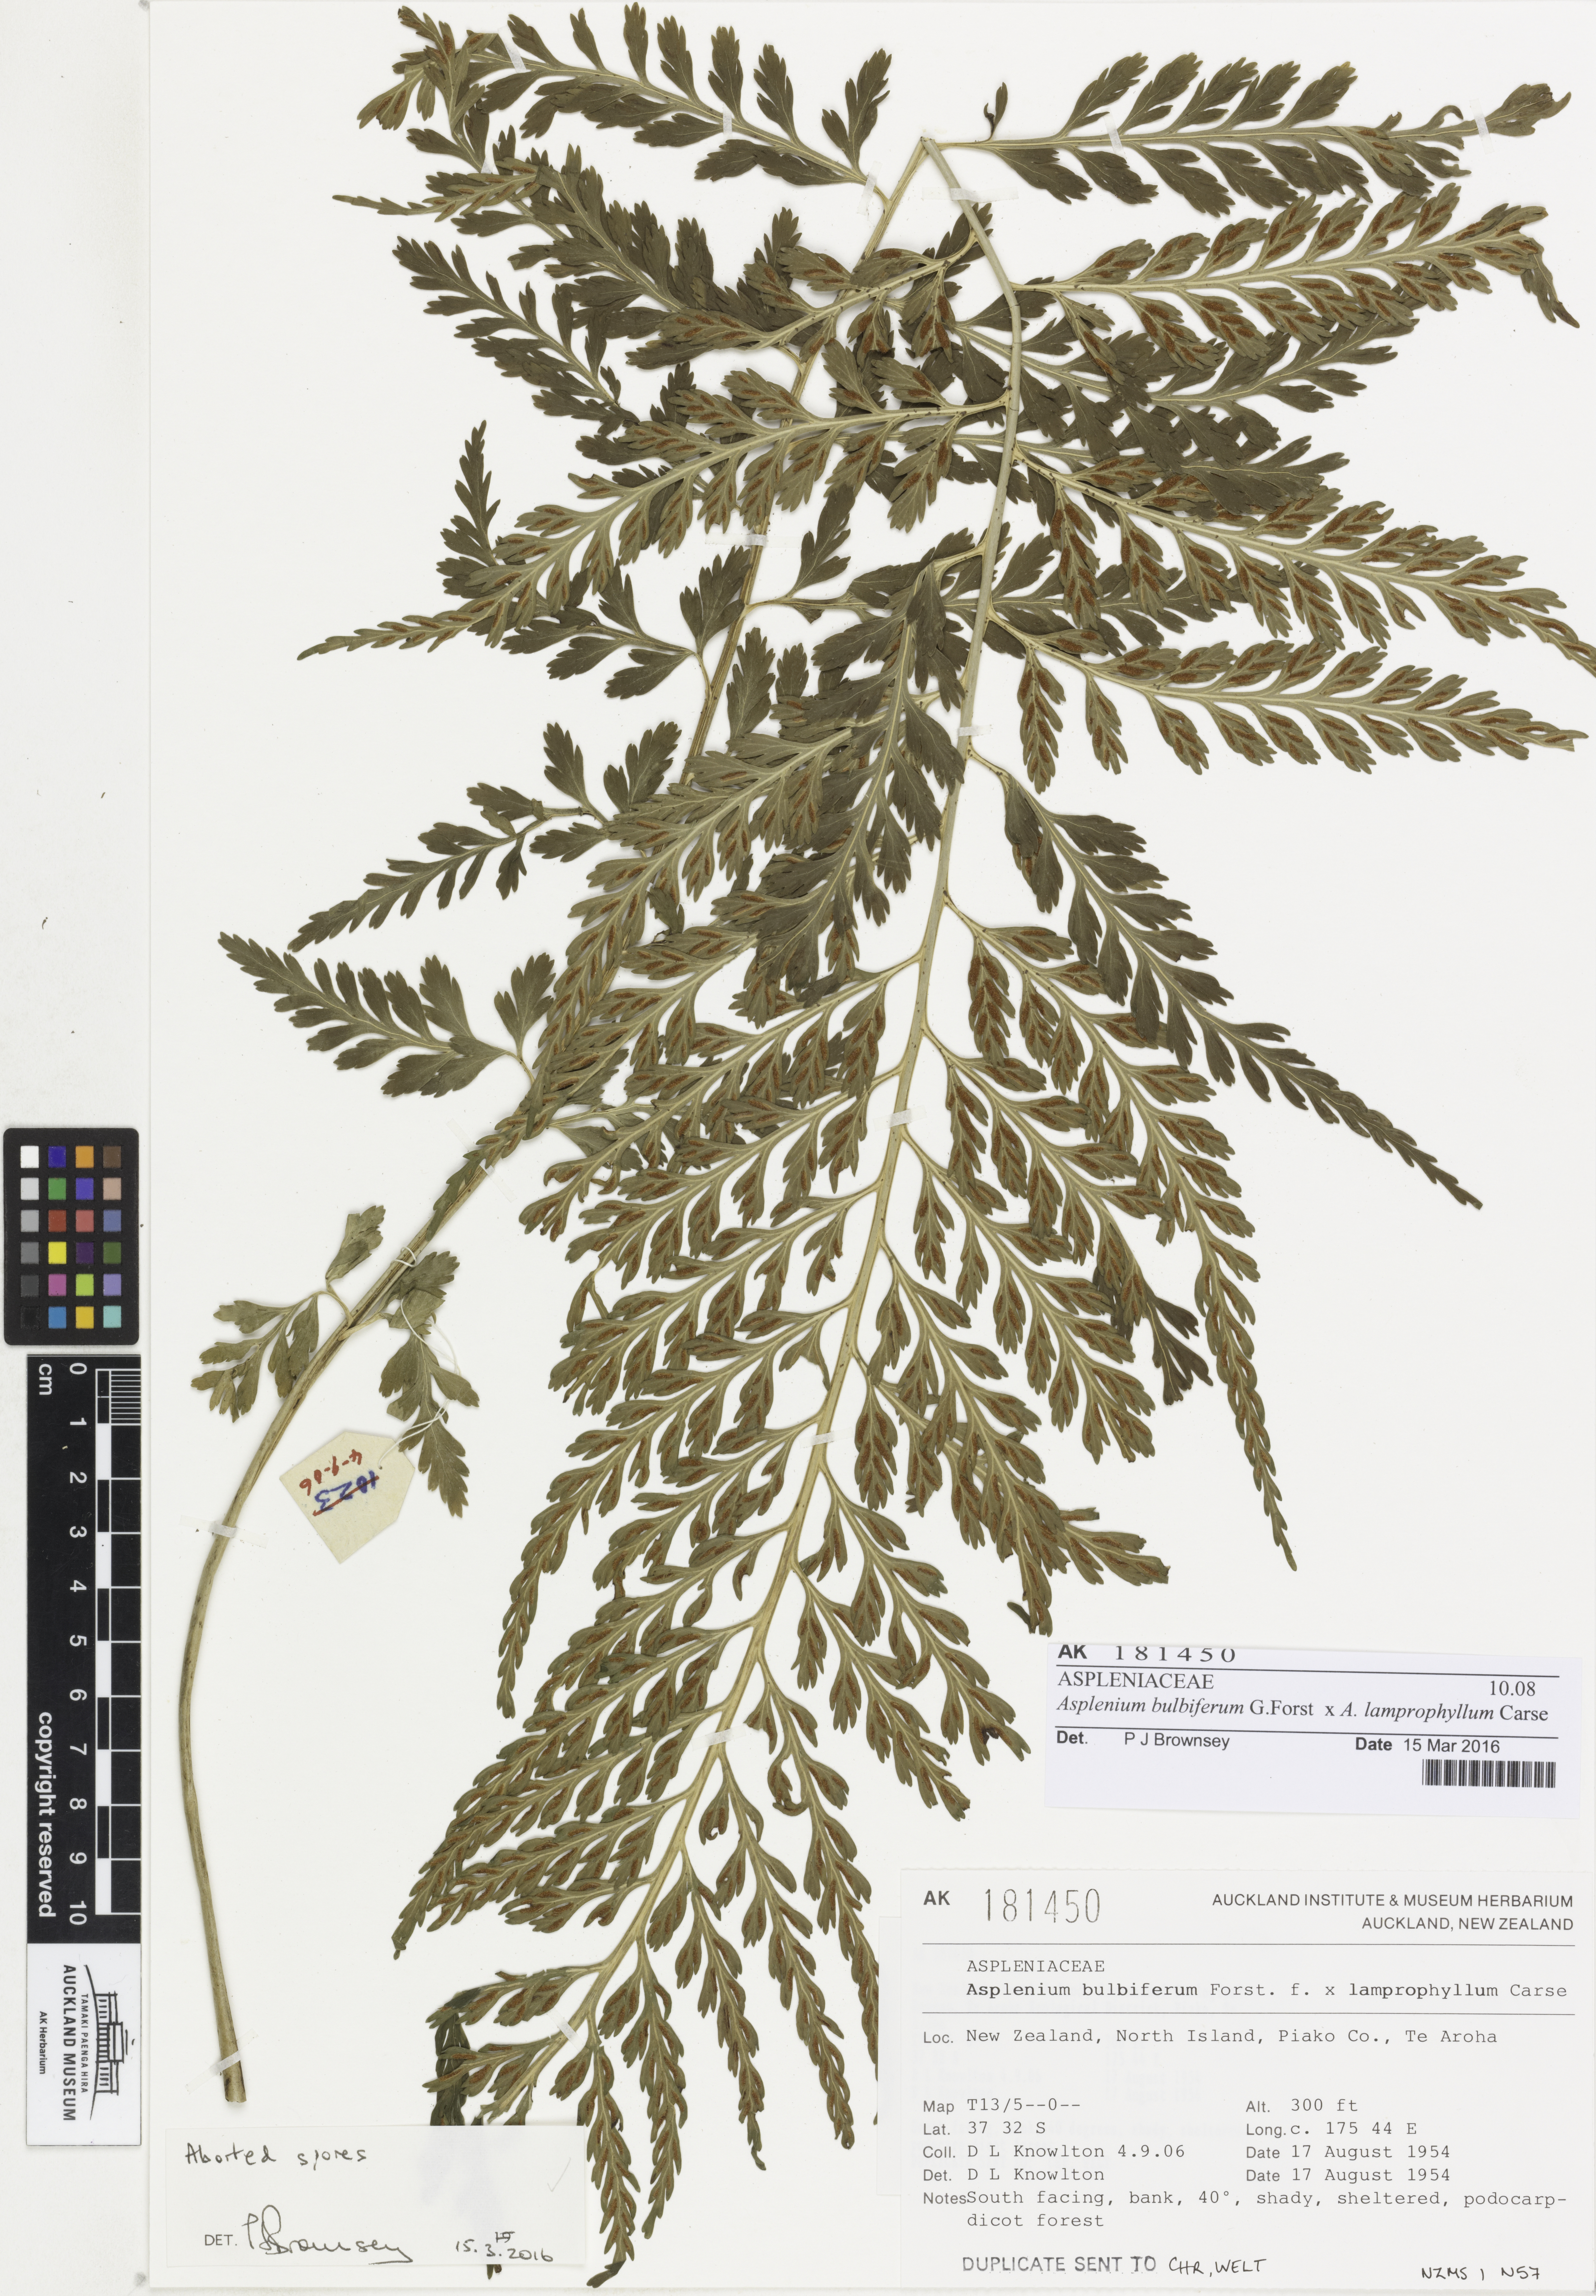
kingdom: Plantae
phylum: Tracheophyta
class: Polypodiopsida
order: Polypodiales
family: Aspleniaceae
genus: Asplenium
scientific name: Asplenium
